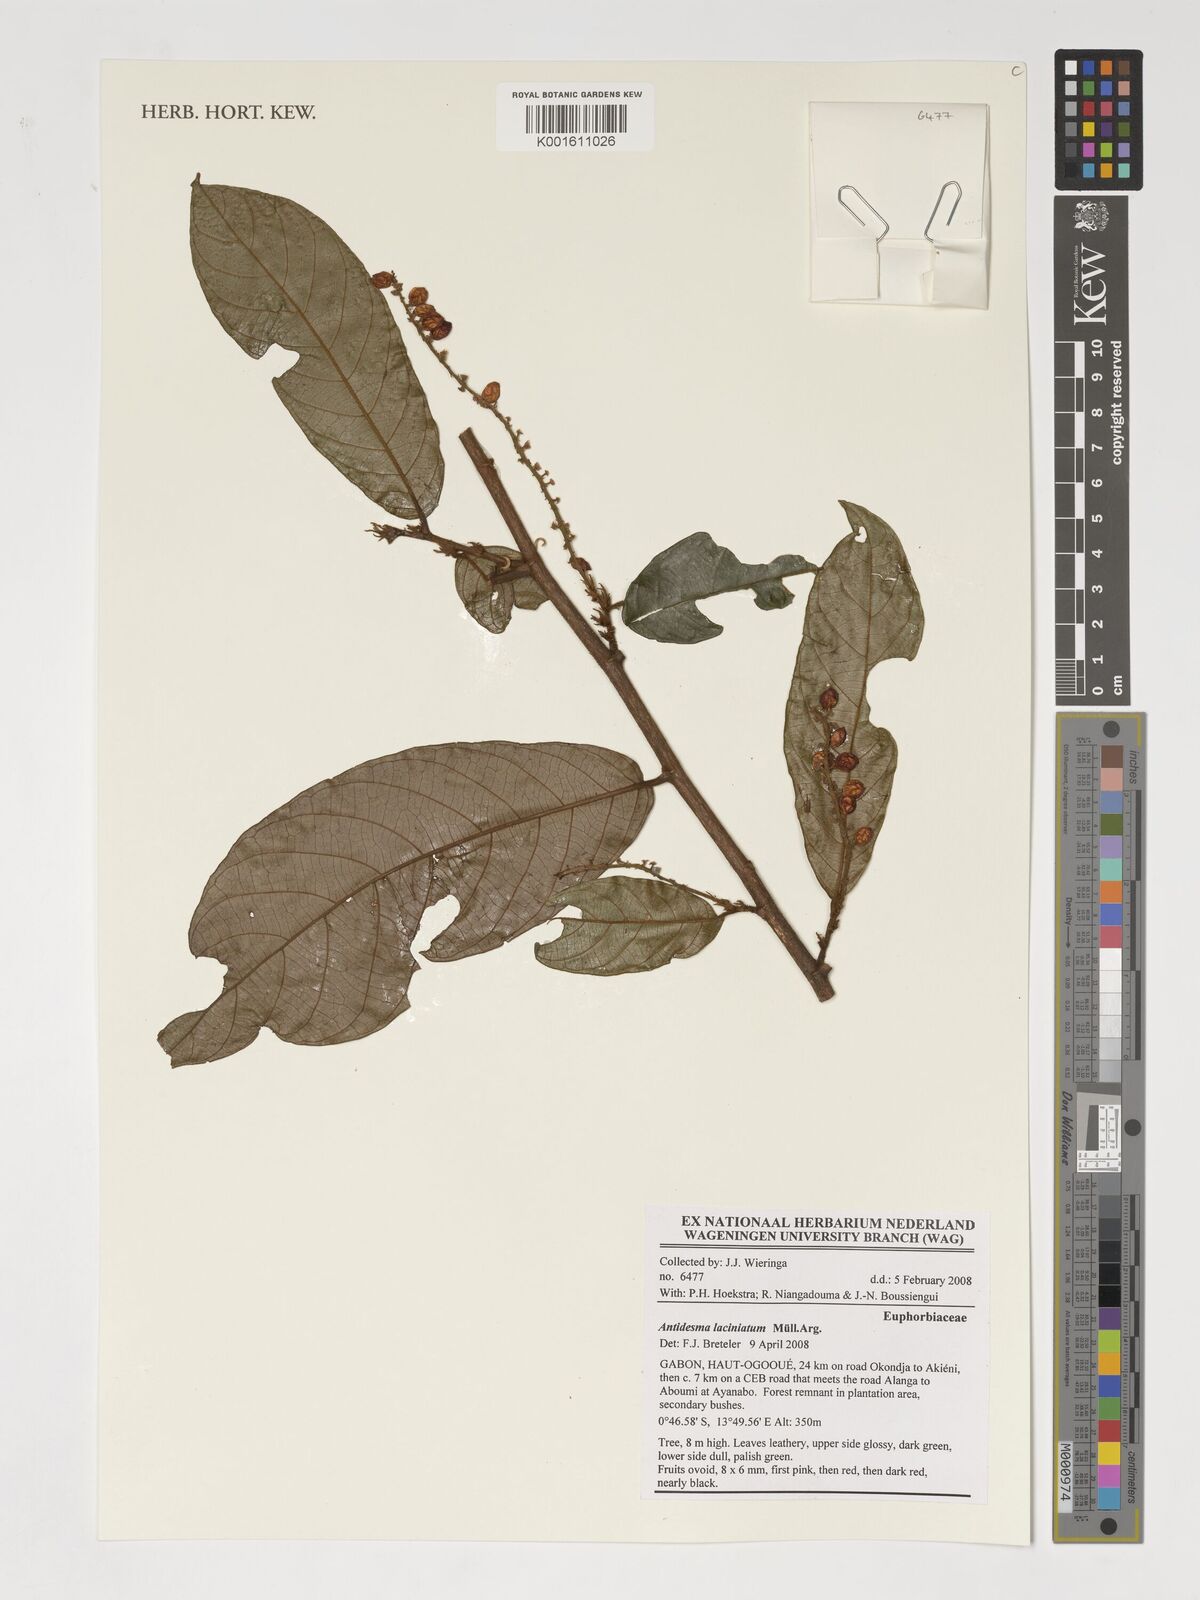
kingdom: Plantae
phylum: Tracheophyta
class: Magnoliopsida
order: Malpighiales
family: Phyllanthaceae
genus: Antidesma
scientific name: Antidesma laciniatum
